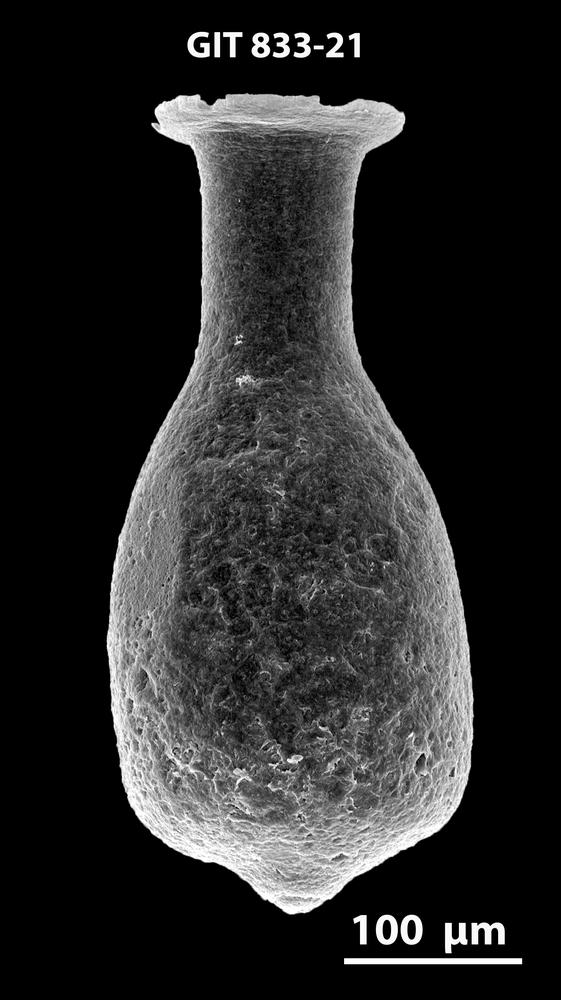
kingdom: Animalia
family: Lagenochitinidae
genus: Lagenochitina
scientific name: Lagenochitina
